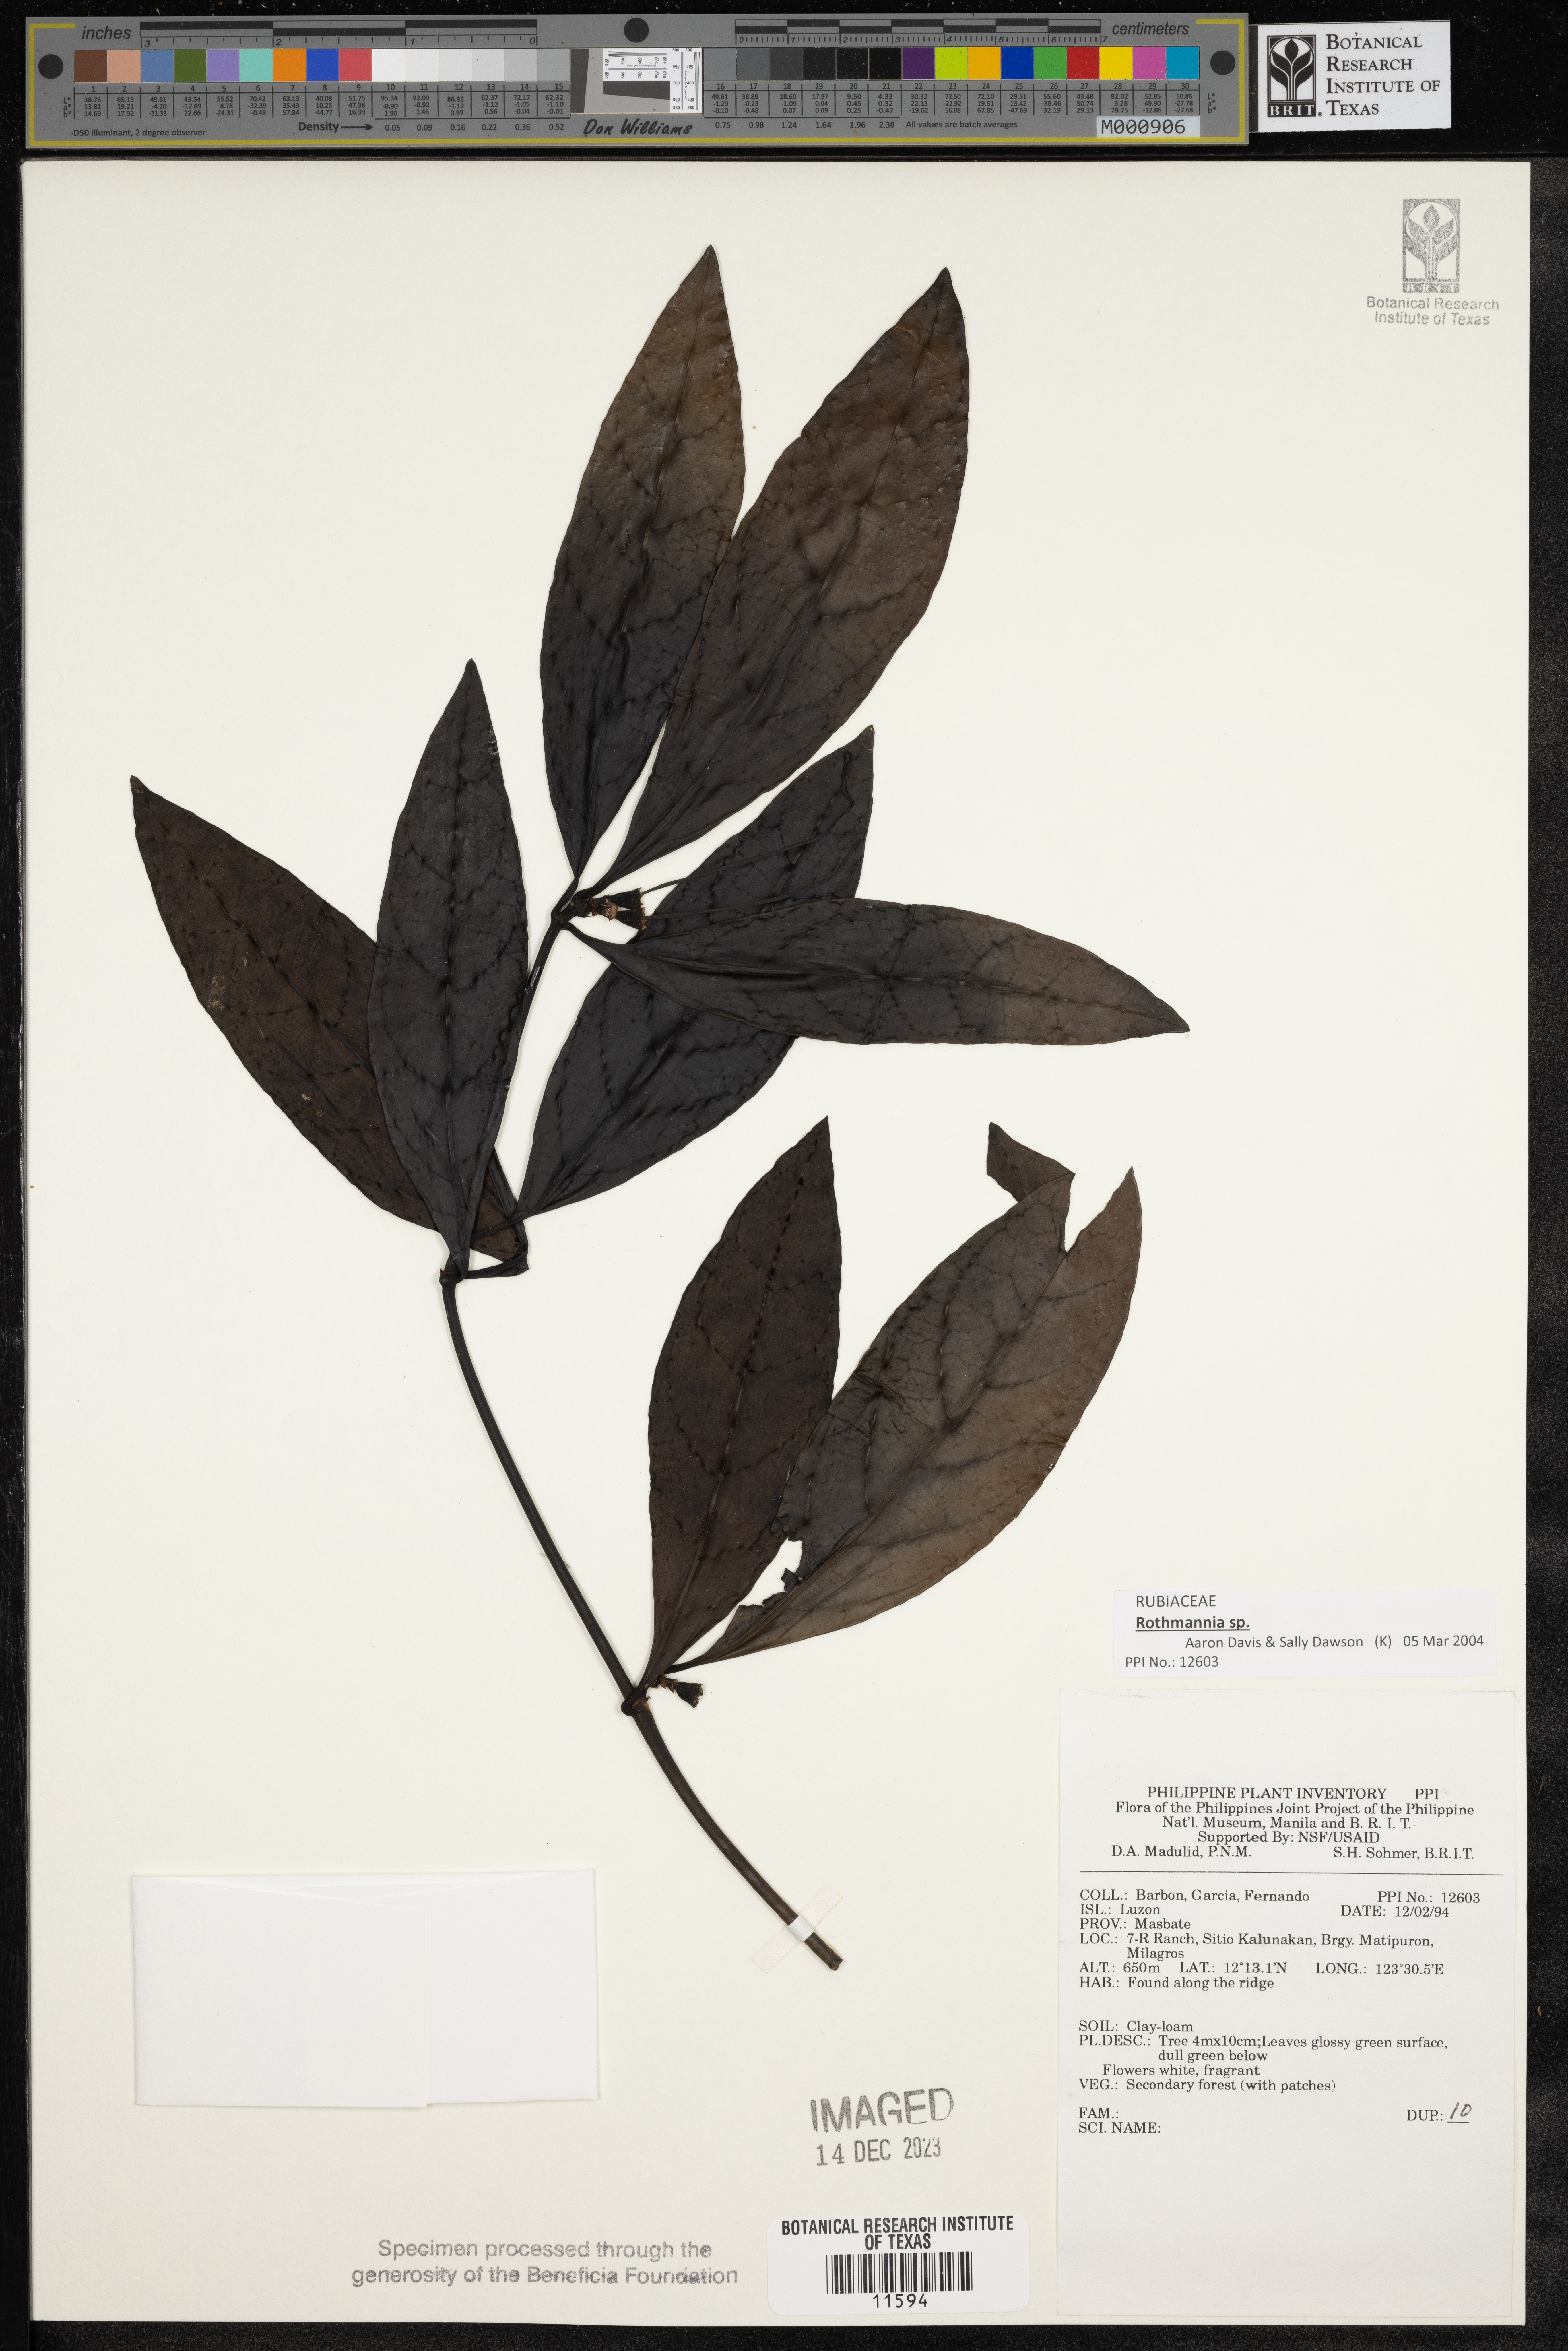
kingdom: Plantae
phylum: Tracheophyta
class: Magnoliopsida
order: Gentianales
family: Rubiaceae
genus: Rothmannia
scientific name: Rothmannia
